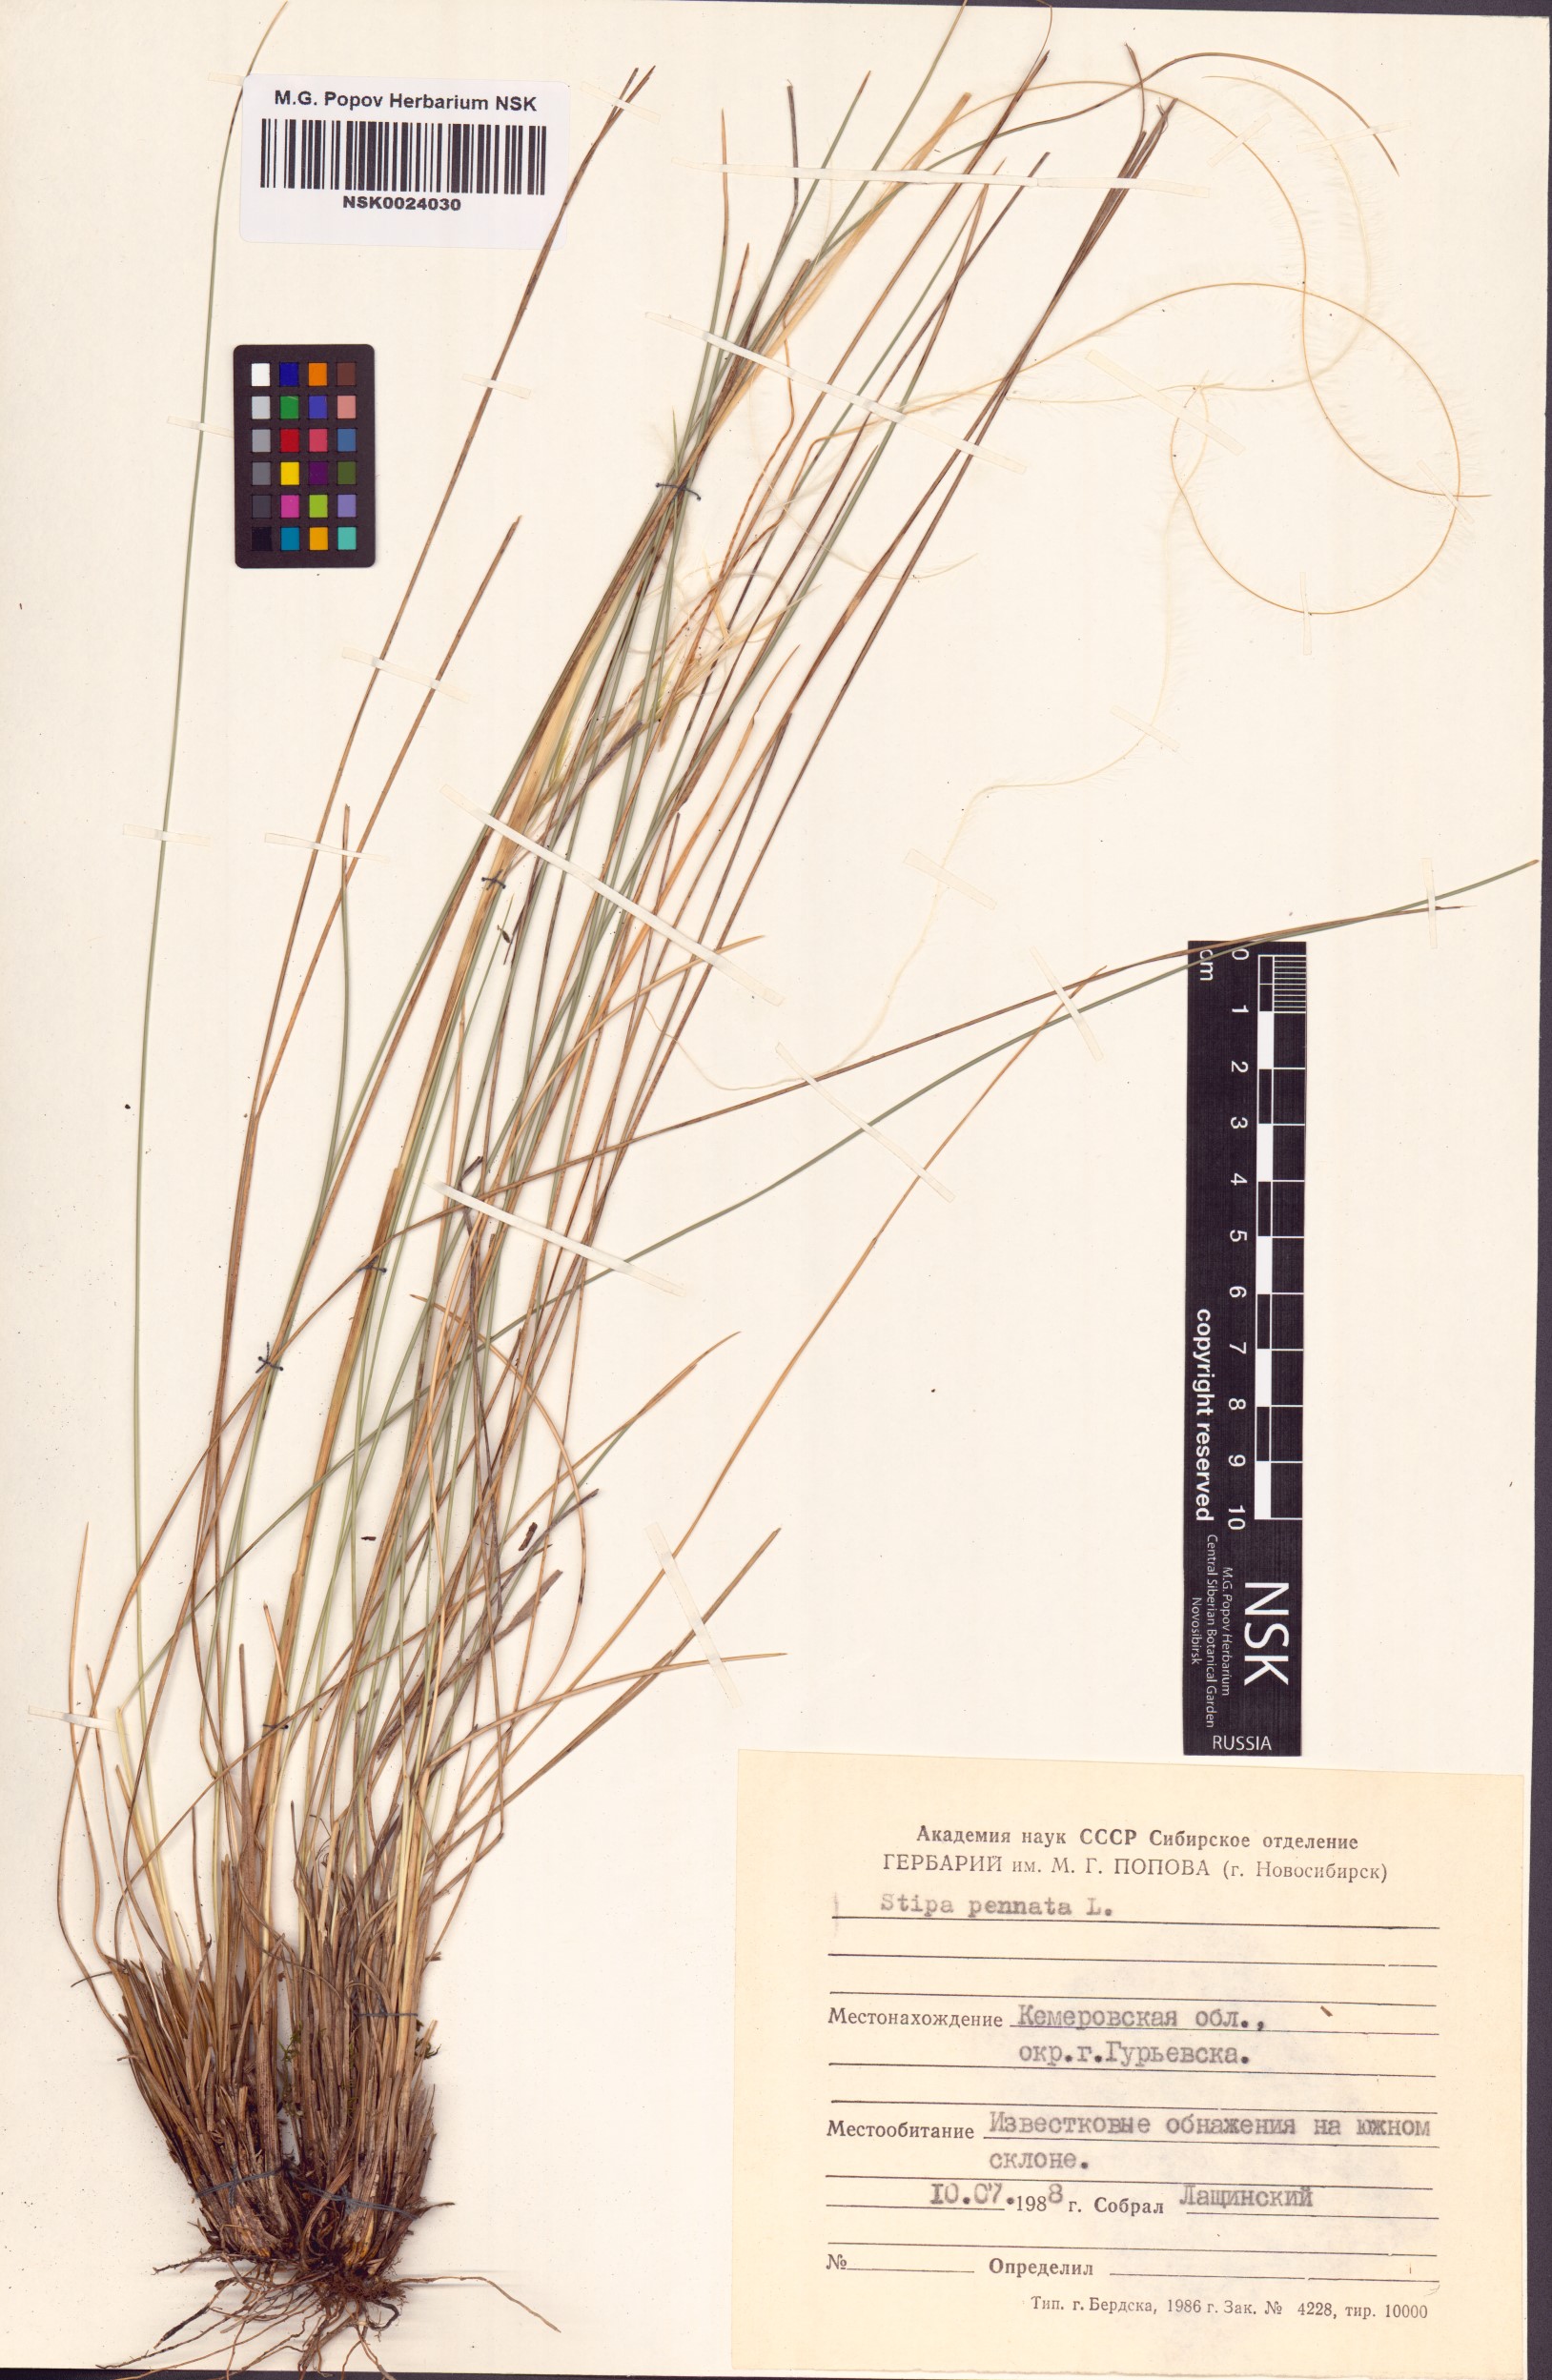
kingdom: Plantae
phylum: Tracheophyta
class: Liliopsida
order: Poales
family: Poaceae
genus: Stipa
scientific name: Stipa pennata
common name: European feather grass
